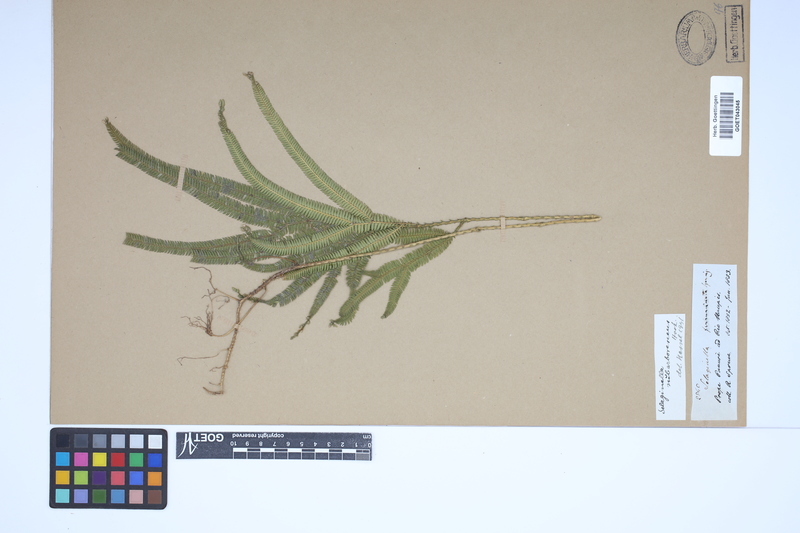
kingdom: Plantae
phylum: Tracheophyta
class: Lycopodiopsida
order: Selaginellales
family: Selaginellaceae
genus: Selaginella
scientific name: Selaginella parkeri
